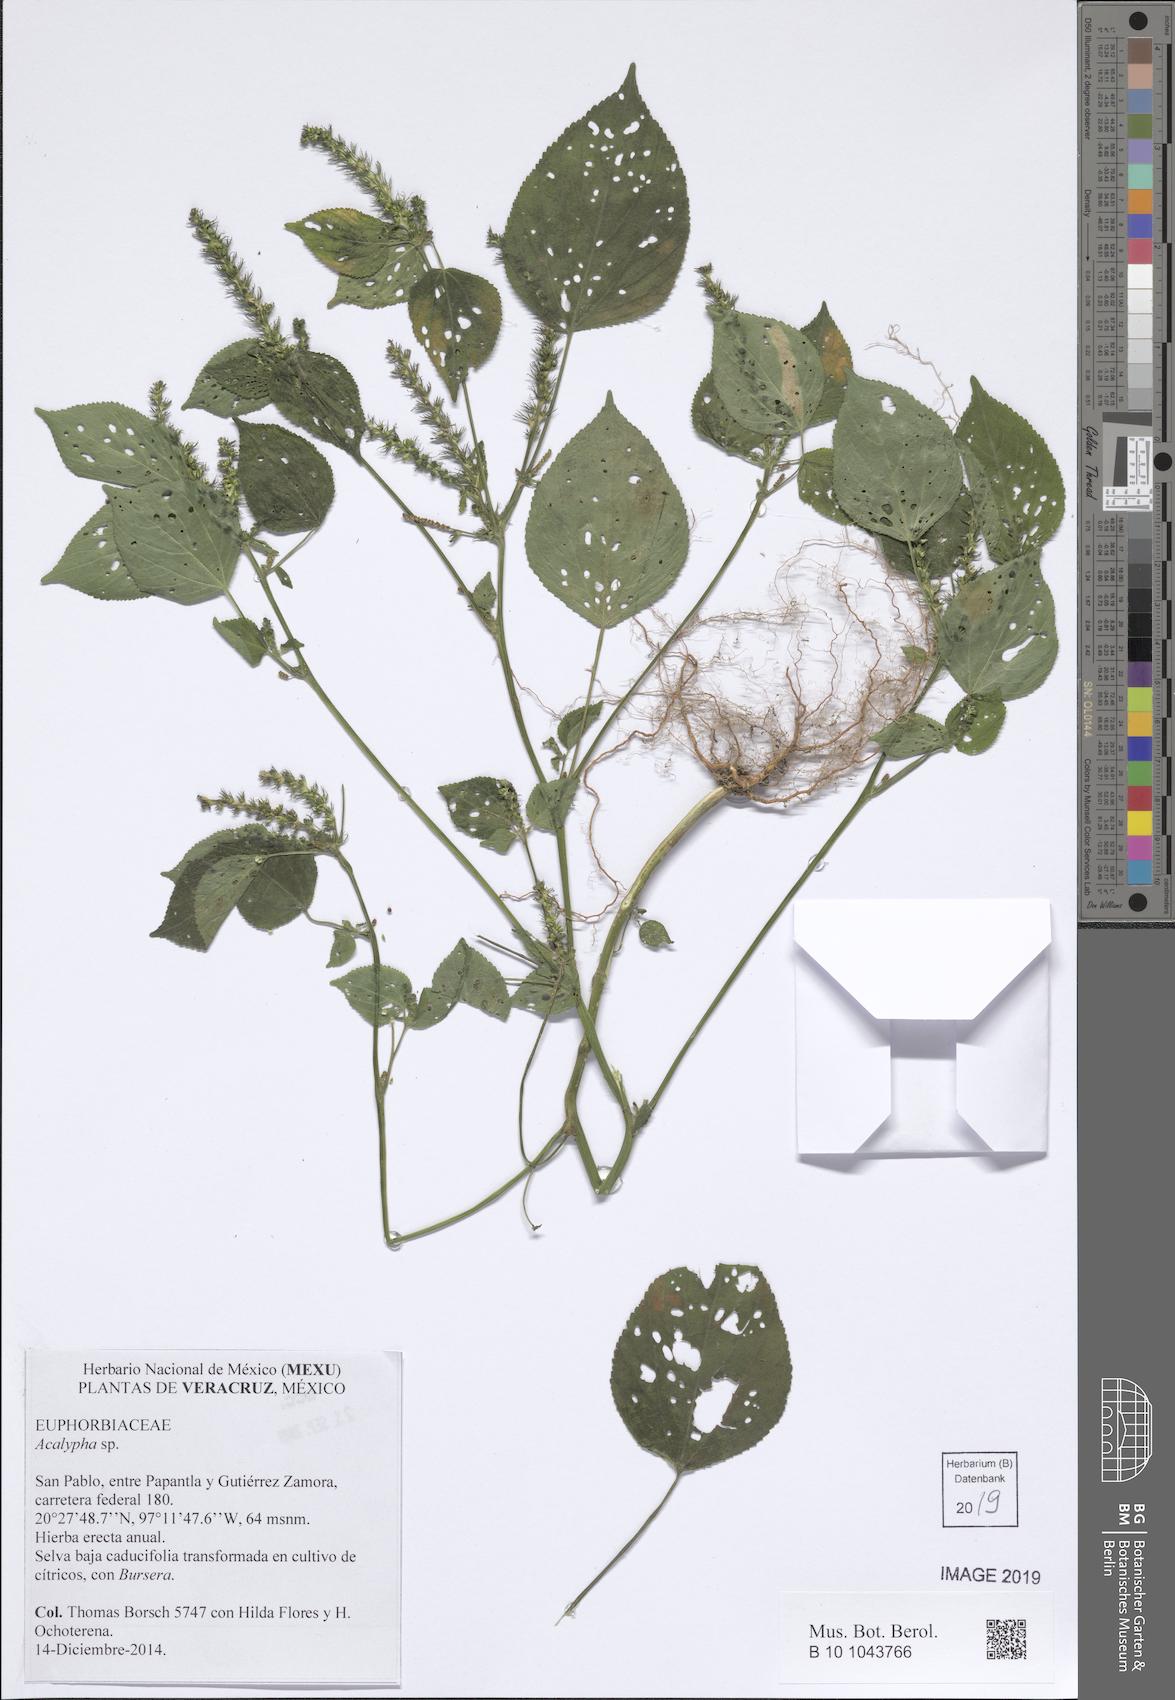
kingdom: Plantae
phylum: Tracheophyta
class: Magnoliopsida
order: Malpighiales
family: Euphorbiaceae
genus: Acalypha
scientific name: Acalypha
